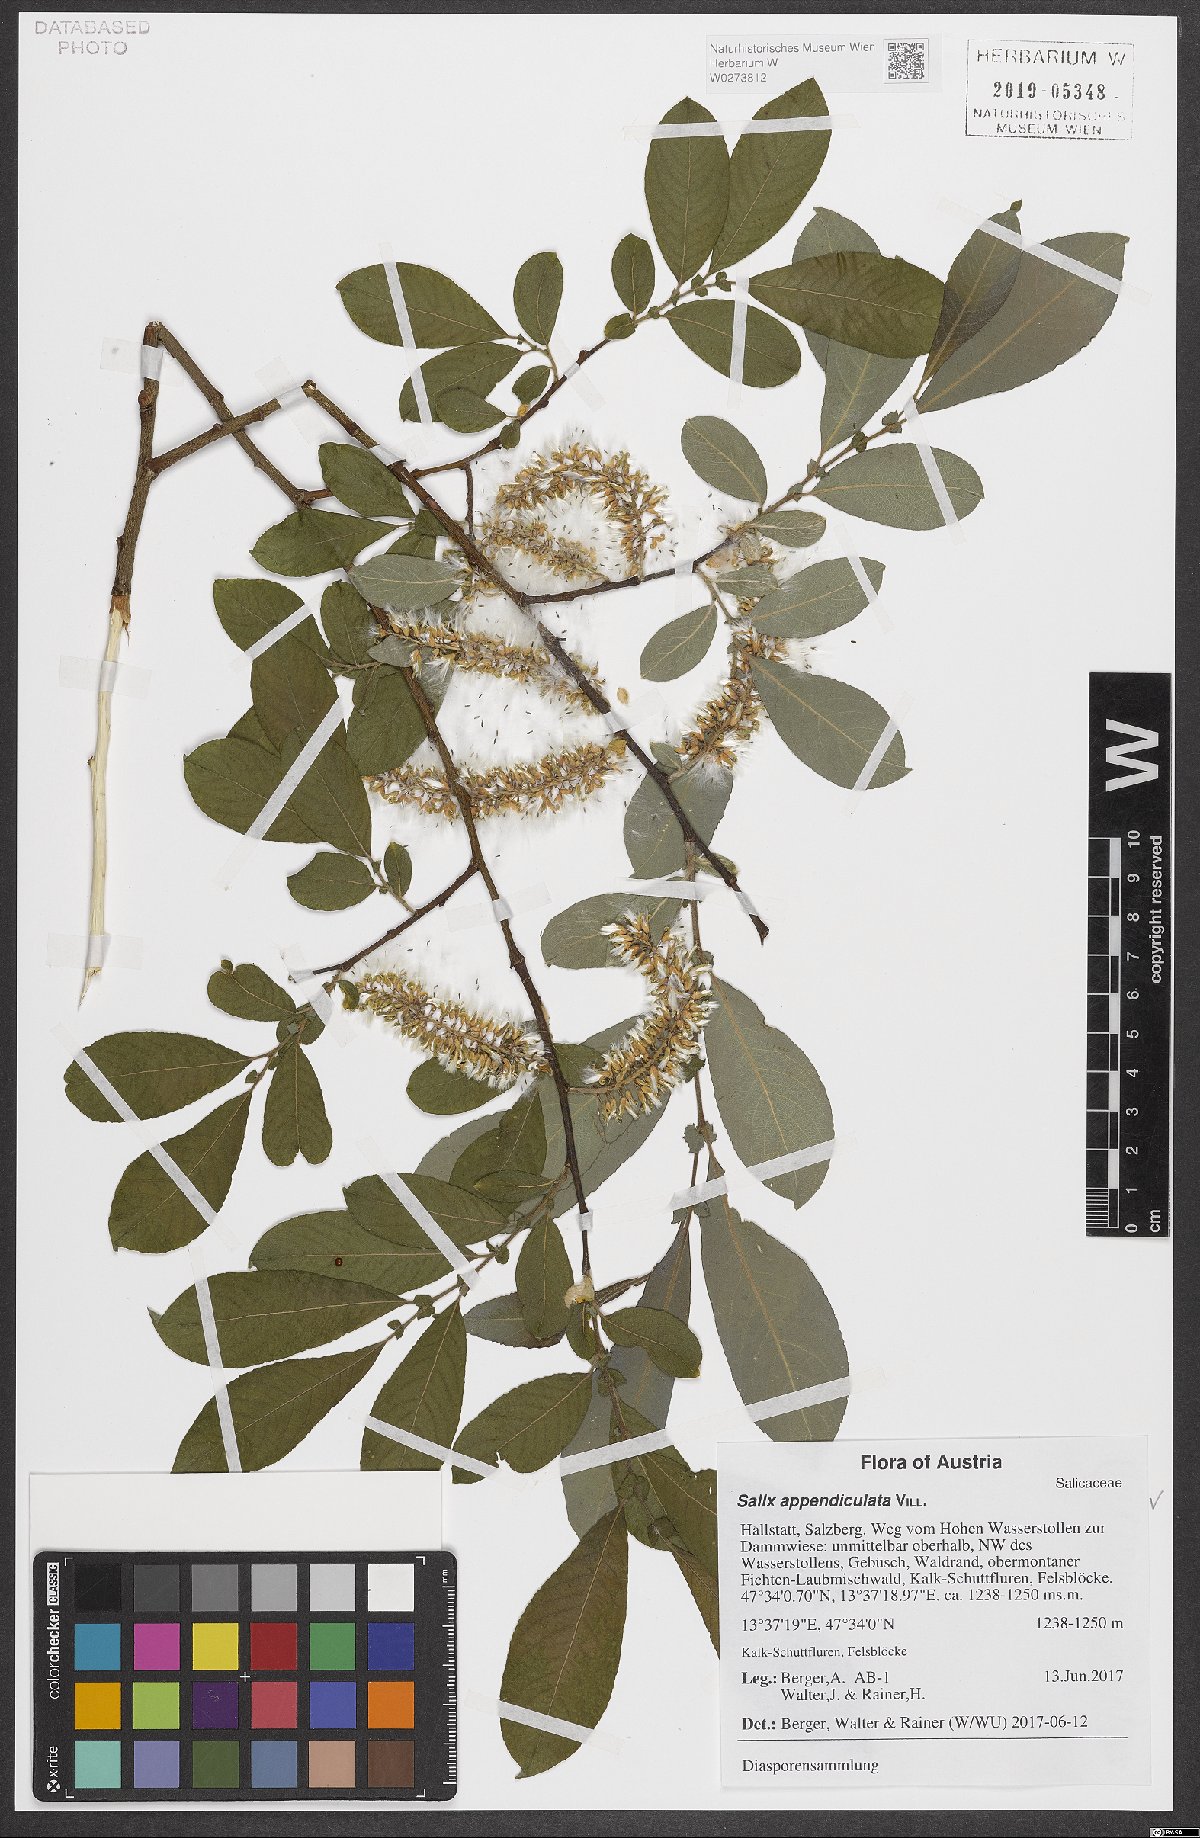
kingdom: Plantae
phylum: Tracheophyta
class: Magnoliopsida
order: Malpighiales
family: Salicaceae
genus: Salix
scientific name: Salix appendiculata
